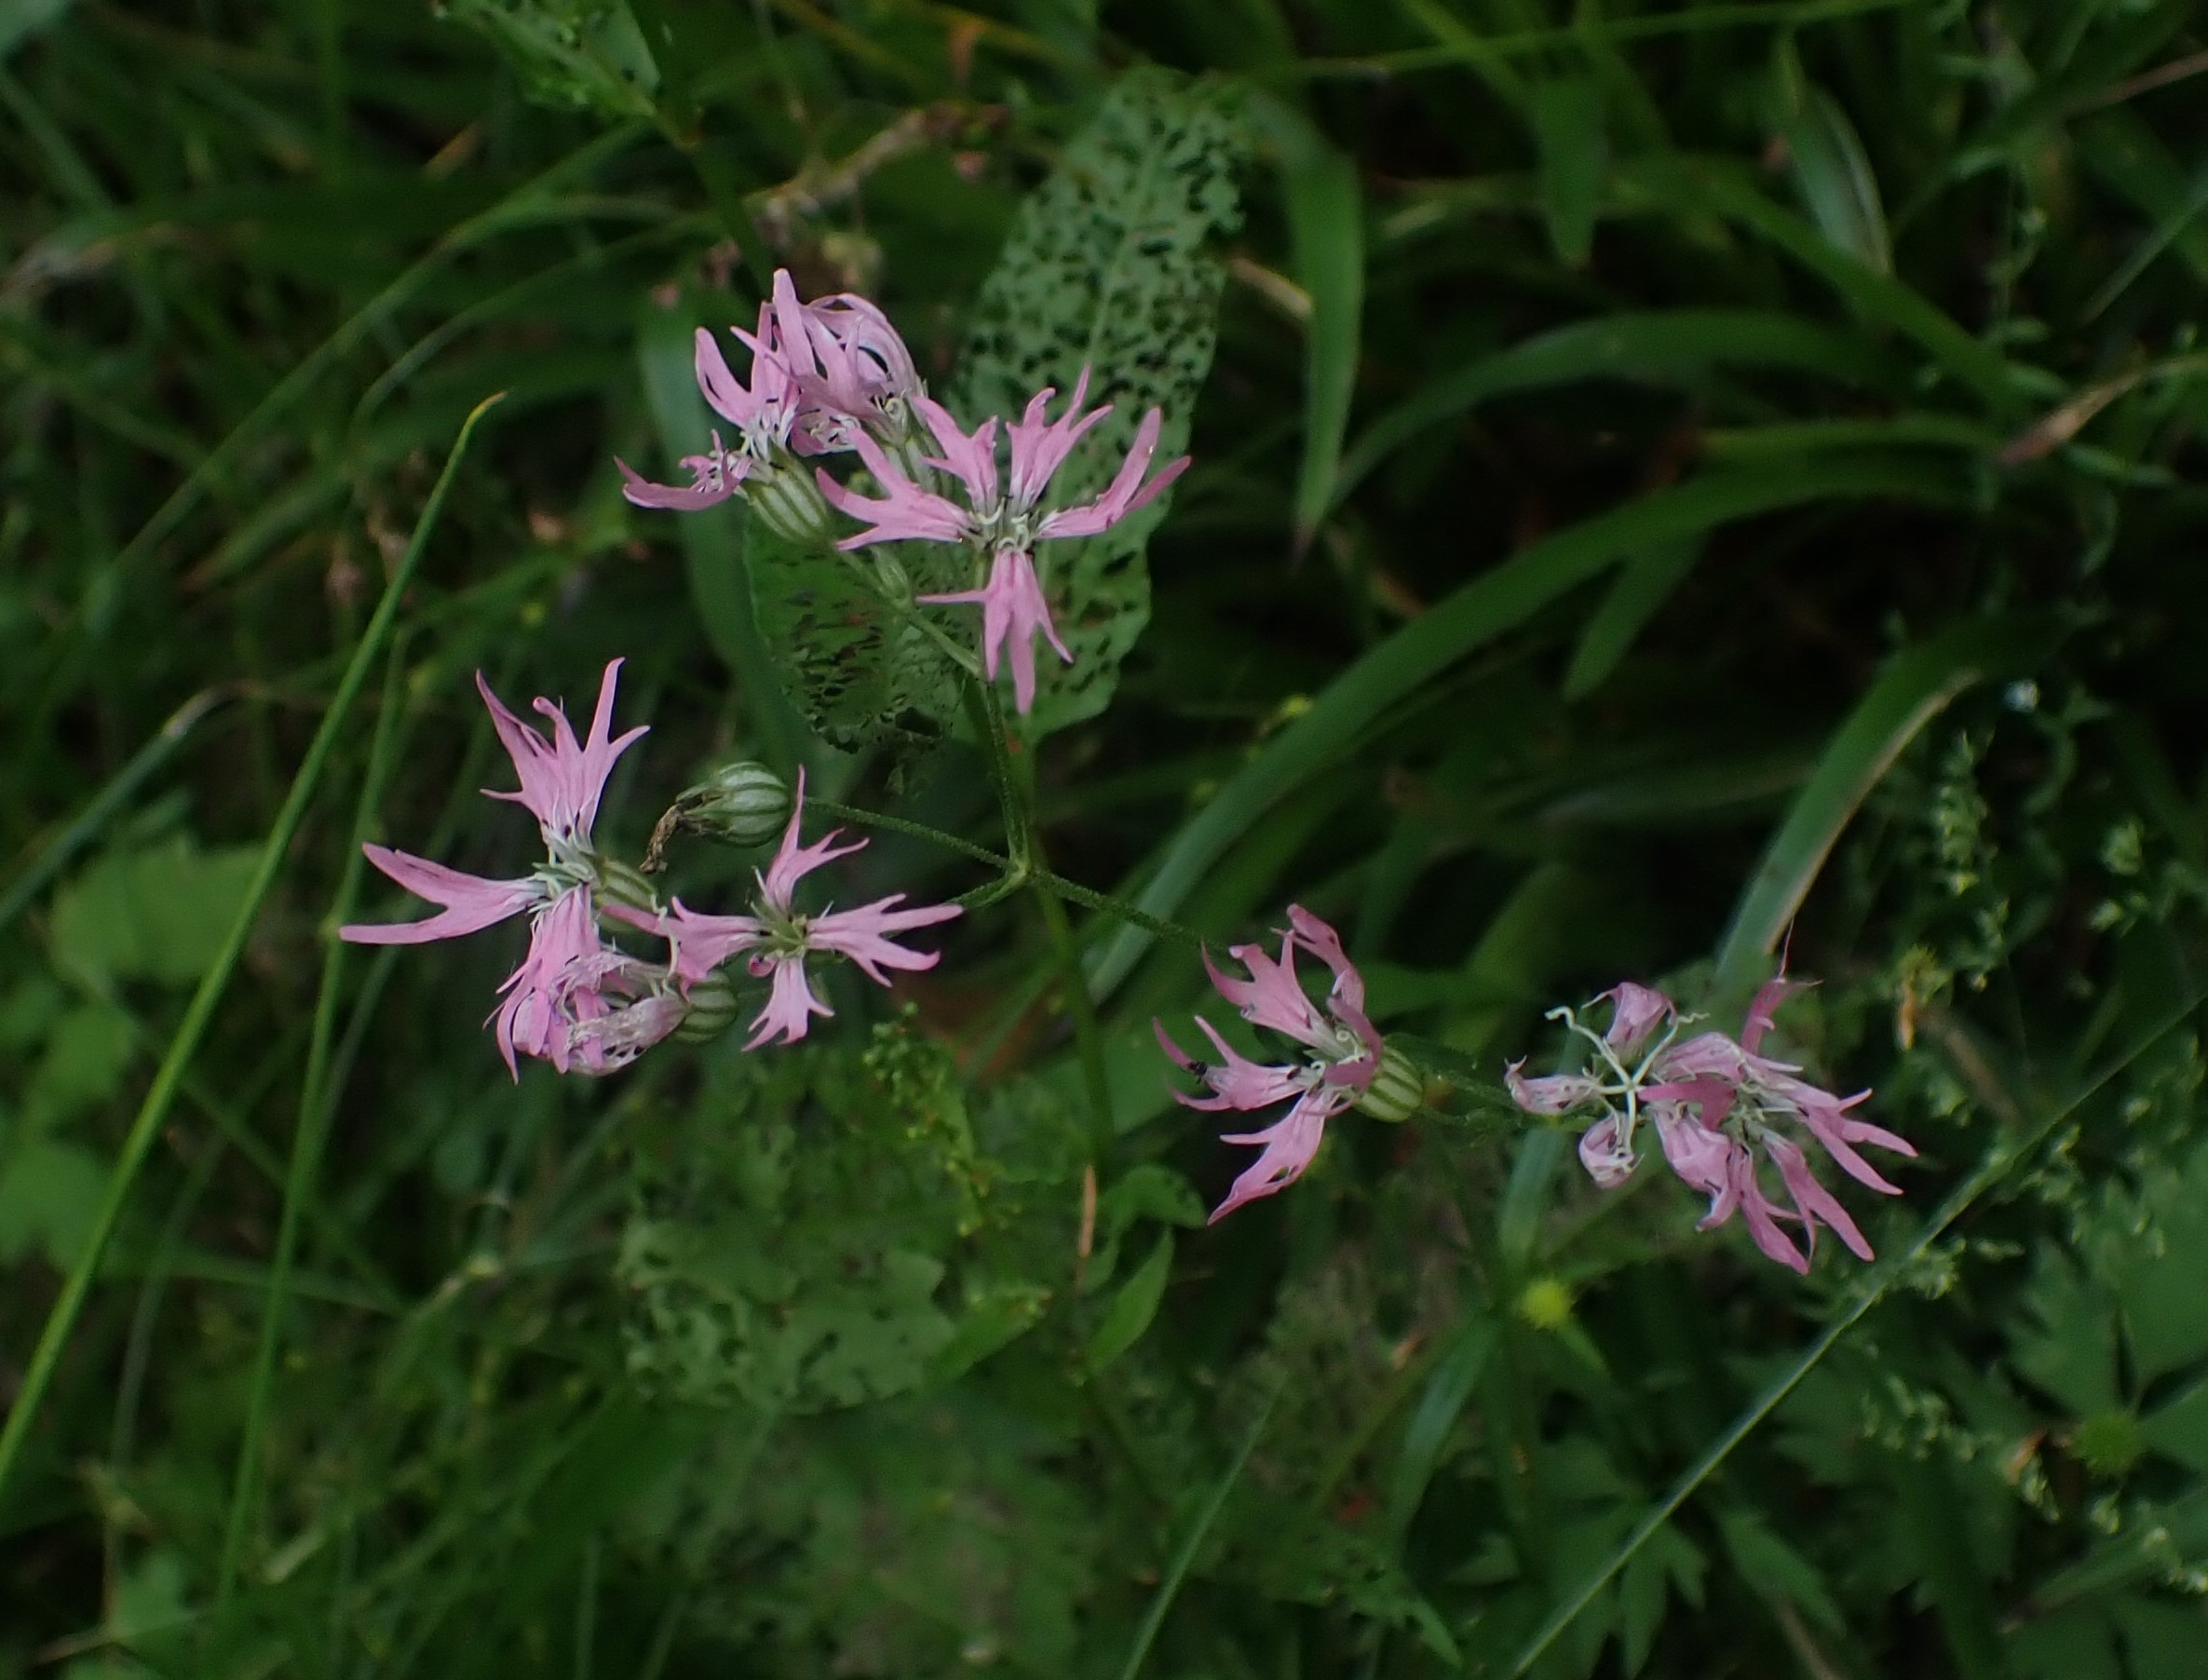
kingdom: Plantae
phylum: Tracheophyta
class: Magnoliopsida
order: Caryophyllales
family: Caryophyllaceae
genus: Silene
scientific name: Silene flos-cuculi
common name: Trævlekrone
